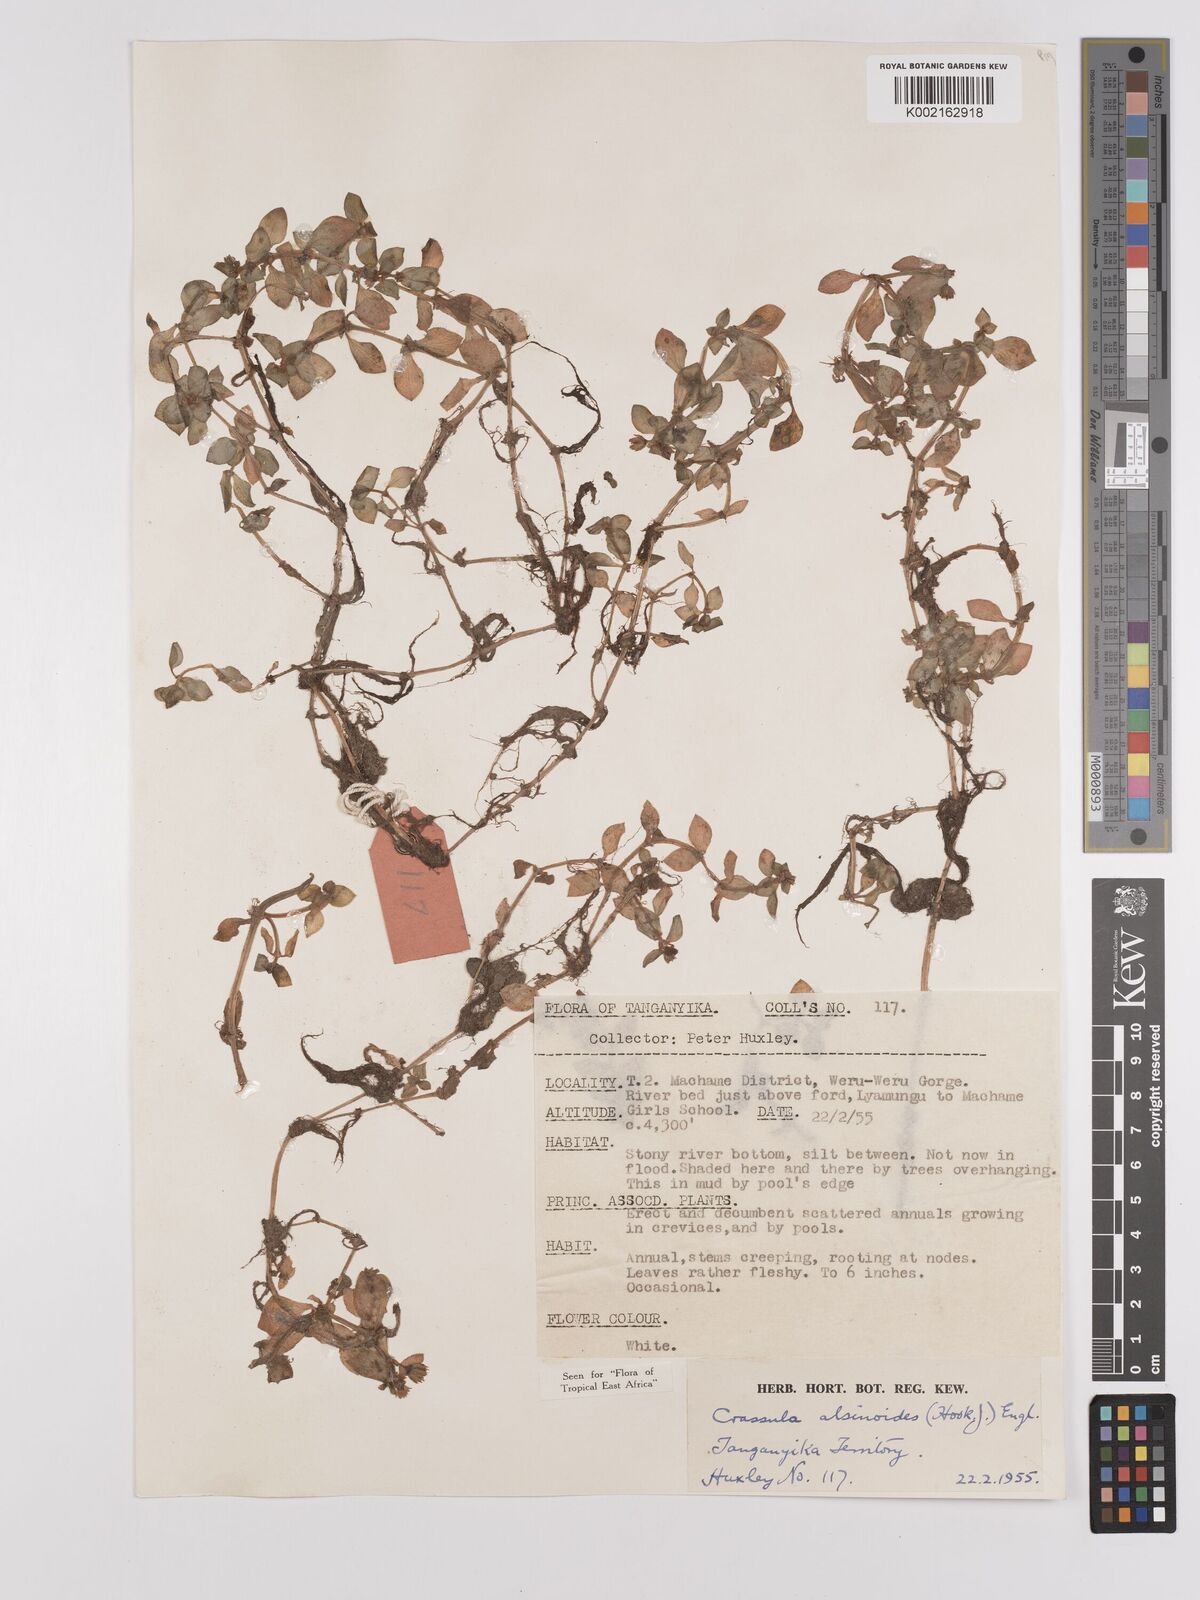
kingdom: Plantae
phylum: Tracheophyta
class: Magnoliopsida
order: Saxifragales
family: Crassulaceae
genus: Crassula
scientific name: Crassula alsinoides
